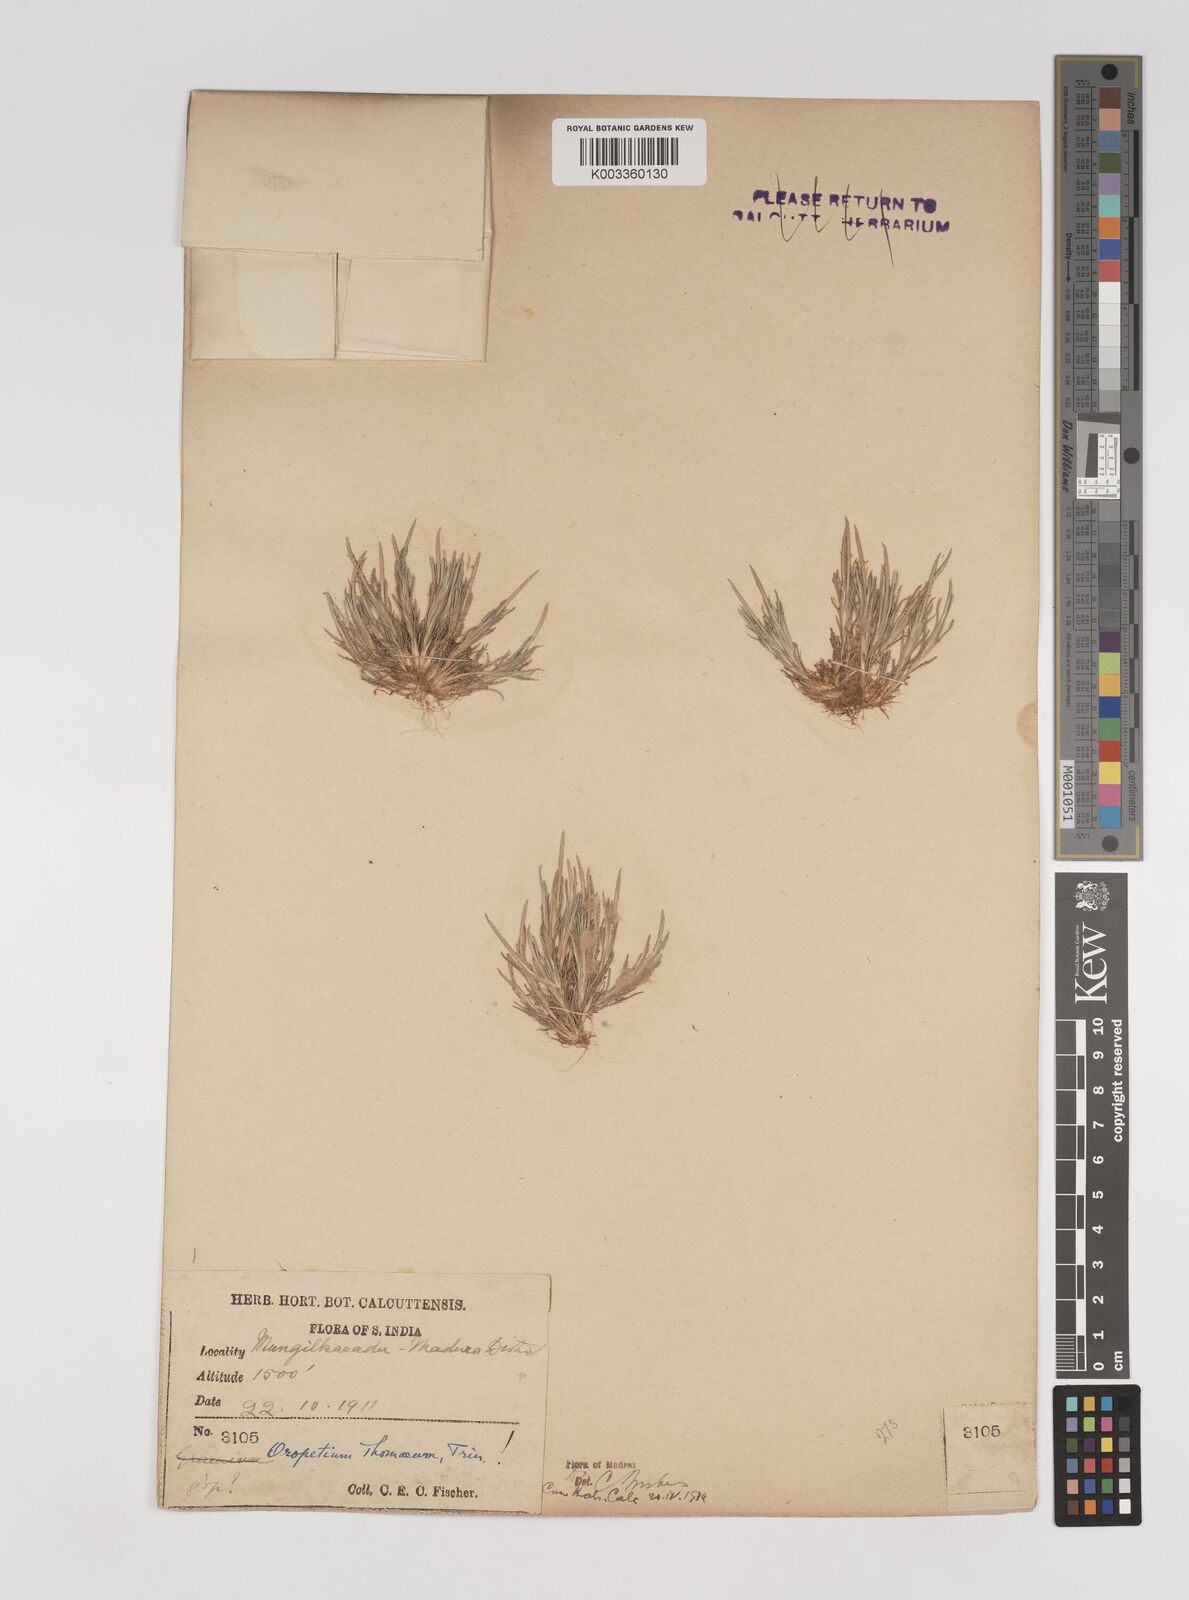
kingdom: Plantae
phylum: Tracheophyta
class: Liliopsida
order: Poales
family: Poaceae
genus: Oropetium
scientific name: Oropetium thomaeum
